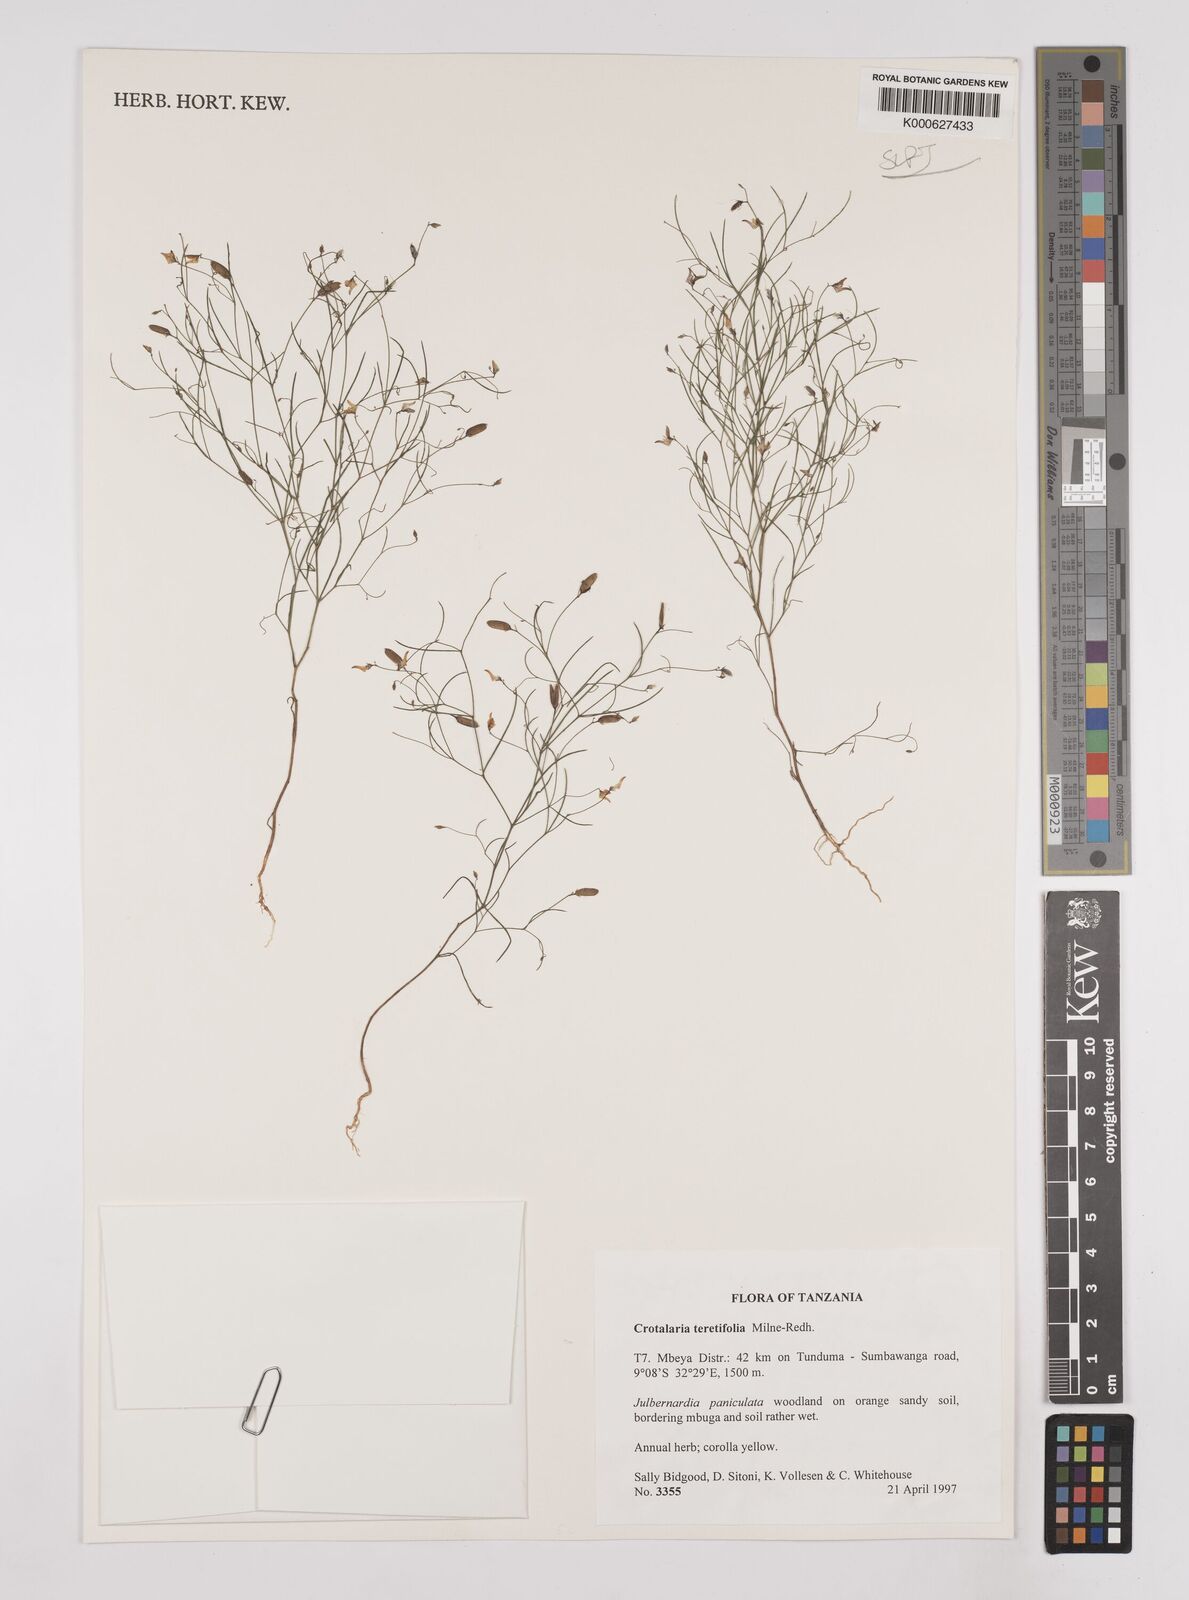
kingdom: Plantae
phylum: Tracheophyta
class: Magnoliopsida
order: Fabales
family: Fabaceae
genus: Crotalaria
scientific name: Crotalaria teretifolia
